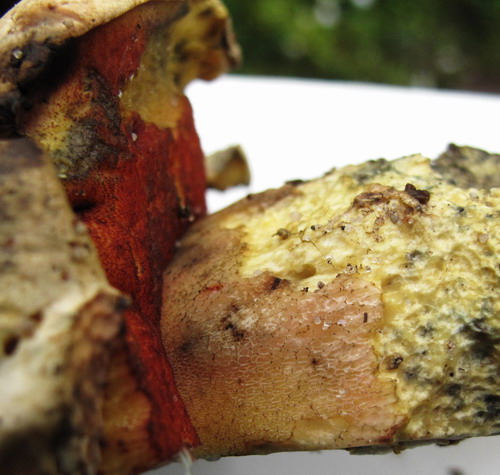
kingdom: Fungi
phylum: Basidiomycota
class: Agaricomycetes
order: Boletales
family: Boletaceae
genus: Rubroboletus
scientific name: Rubroboletus satanas
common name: Satans rørhat
